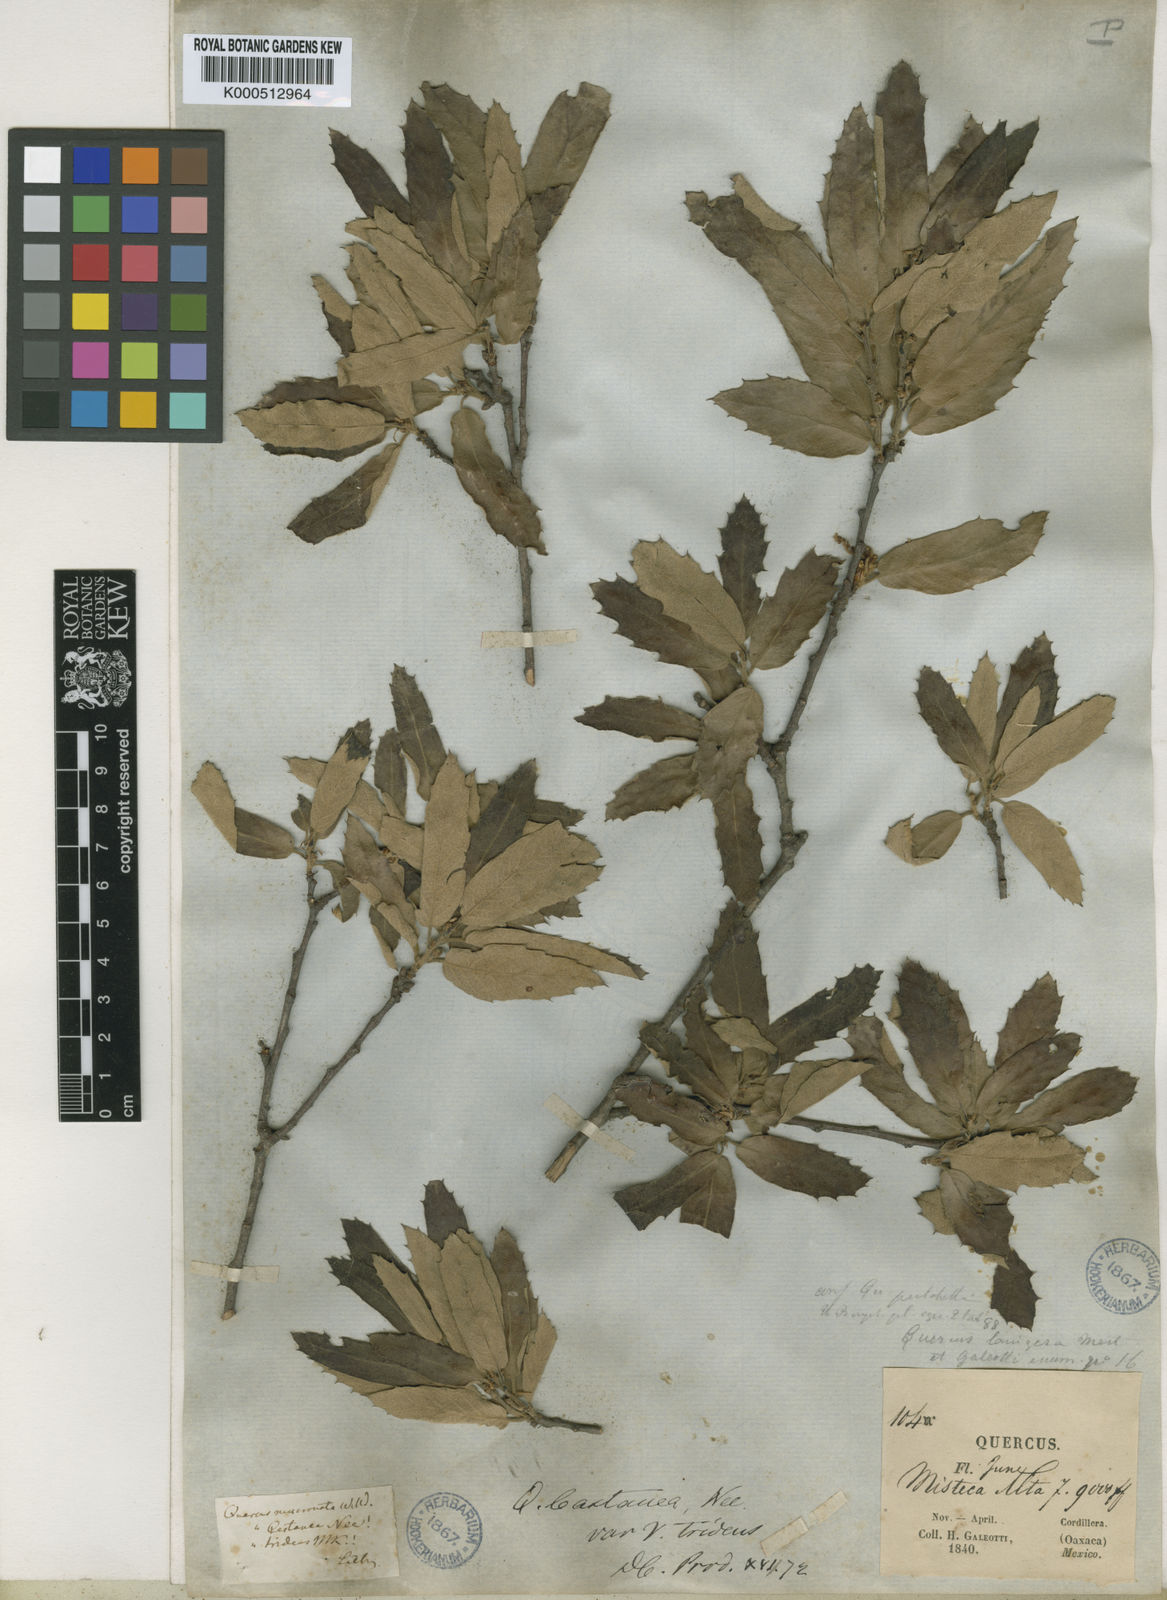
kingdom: Plantae
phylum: Tracheophyta
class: Magnoliopsida
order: Fagales
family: Fagaceae
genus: Quercus
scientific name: Quercus castanea
